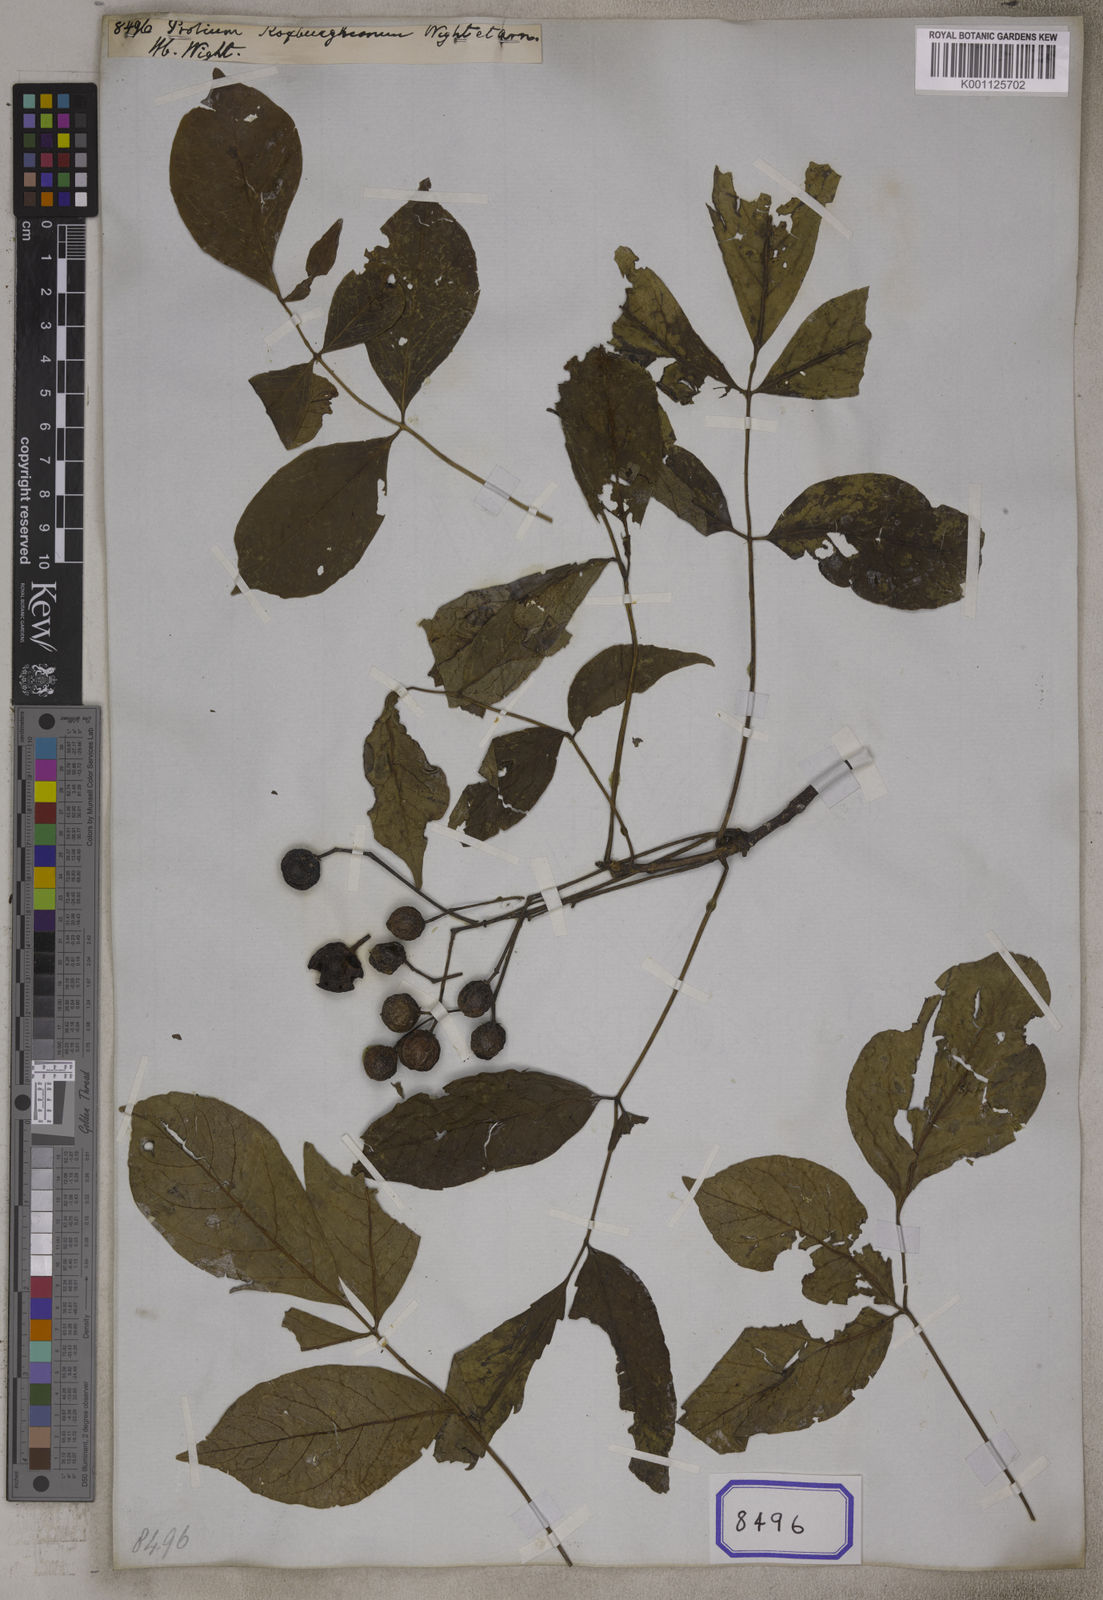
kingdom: Plantae
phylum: Tracheophyta
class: Magnoliopsida
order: Sapindales
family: Burseraceae
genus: Commiphora
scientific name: Commiphora caudata
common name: Hill-mango
